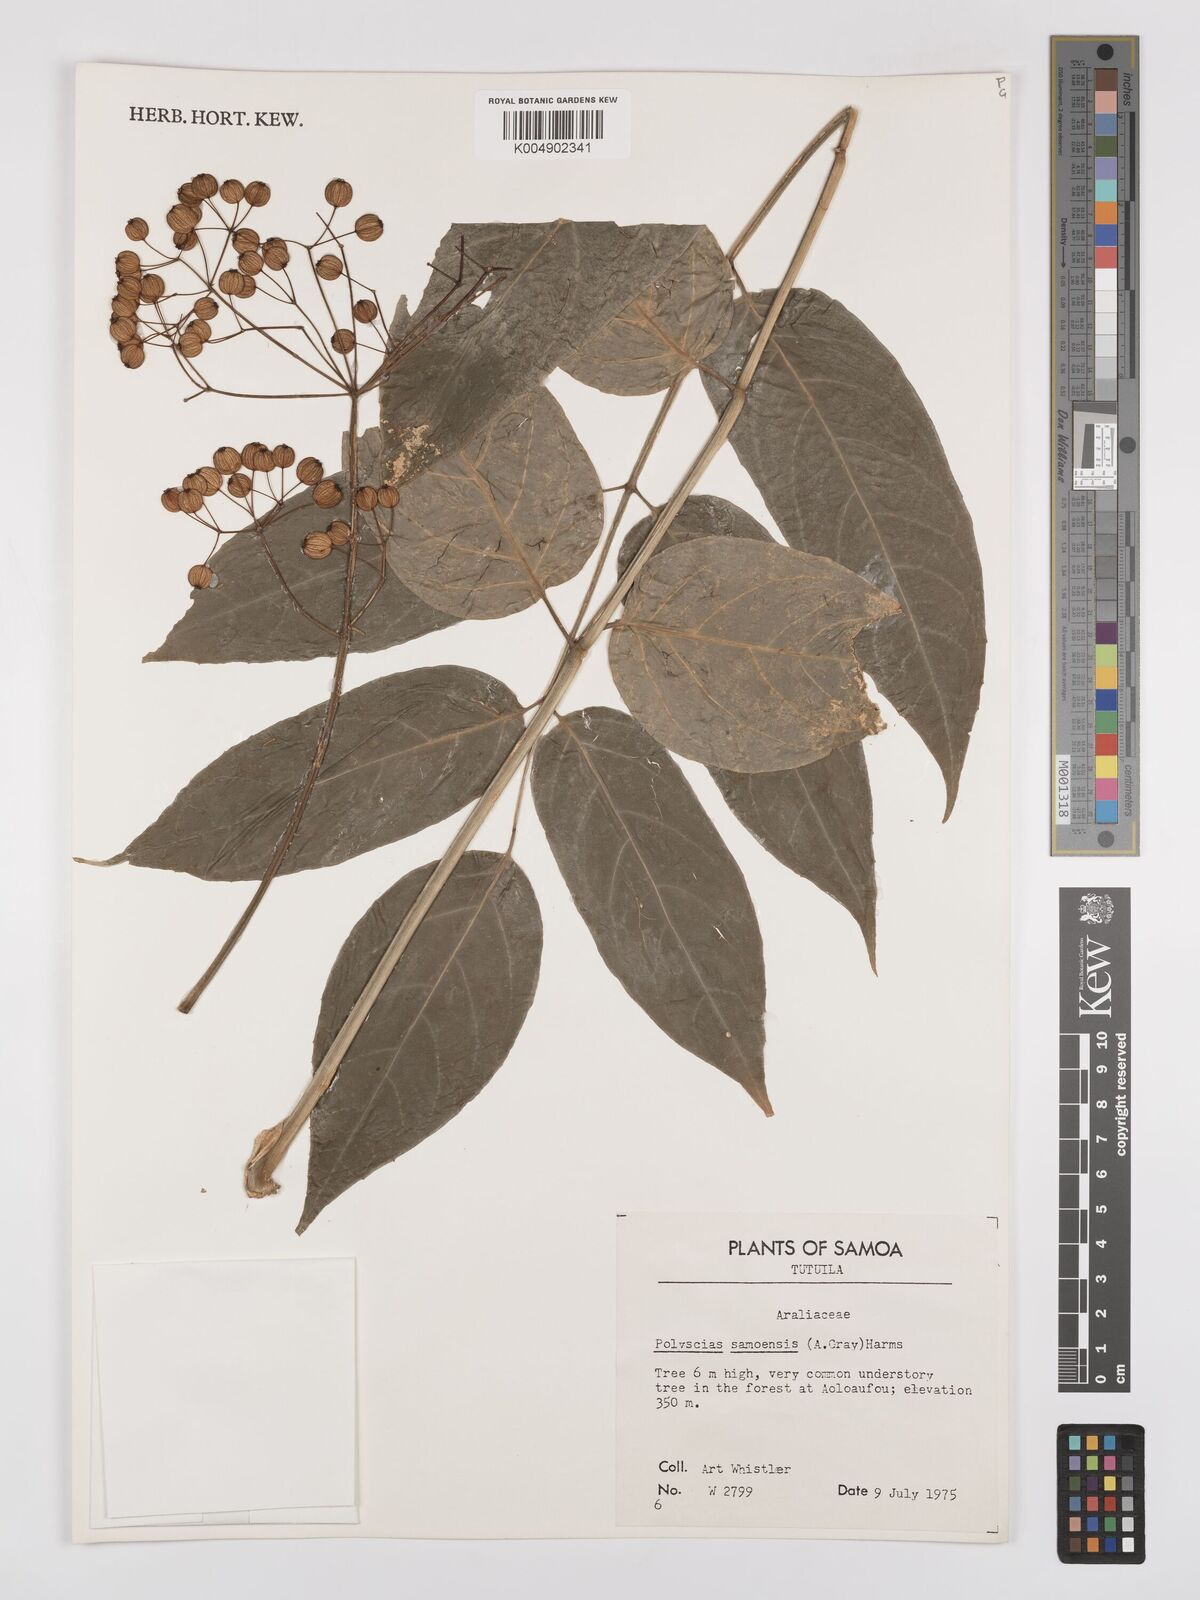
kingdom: Plantae
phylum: Tracheophyta
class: Magnoliopsida
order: Apiales
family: Araliaceae
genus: Polyscias
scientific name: Polyscias samoensis
